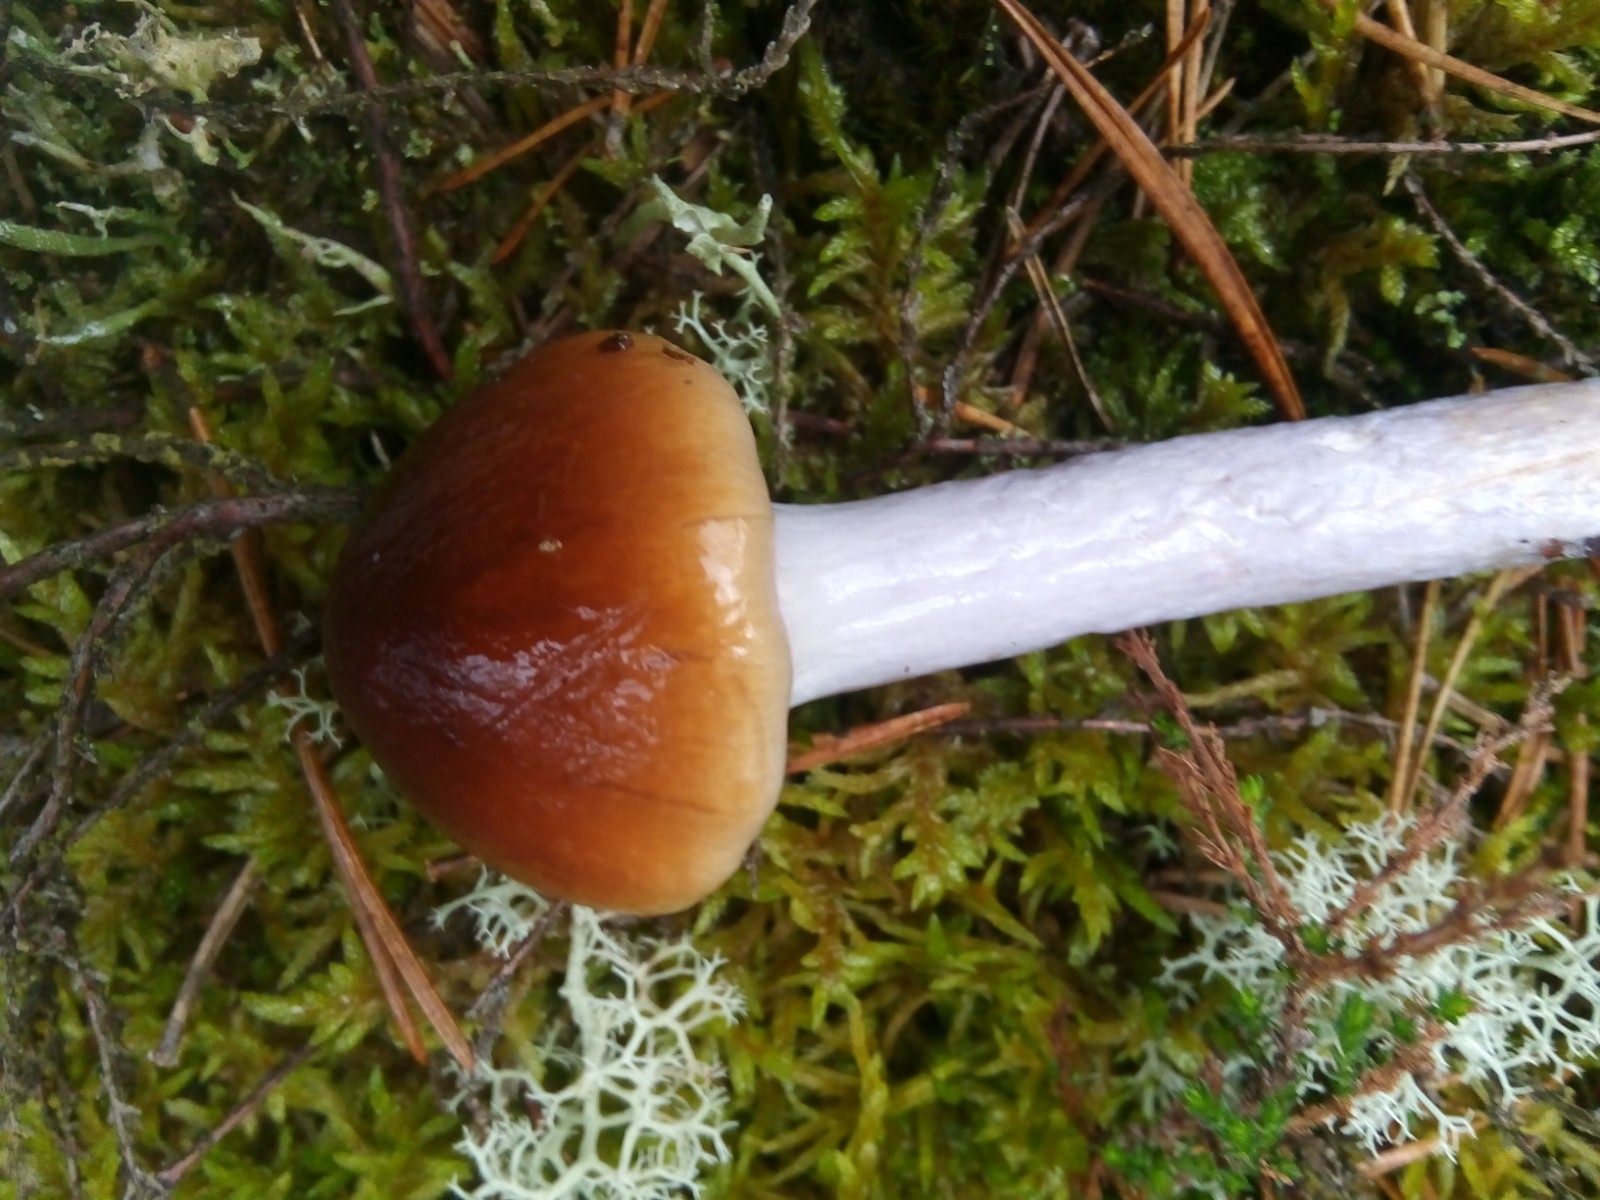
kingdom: Fungi
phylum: Basidiomycota
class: Agaricomycetes
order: Agaricales
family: Cortinariaceae
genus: Cortinarius
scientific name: Cortinarius collinitus
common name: spættet slørhat
